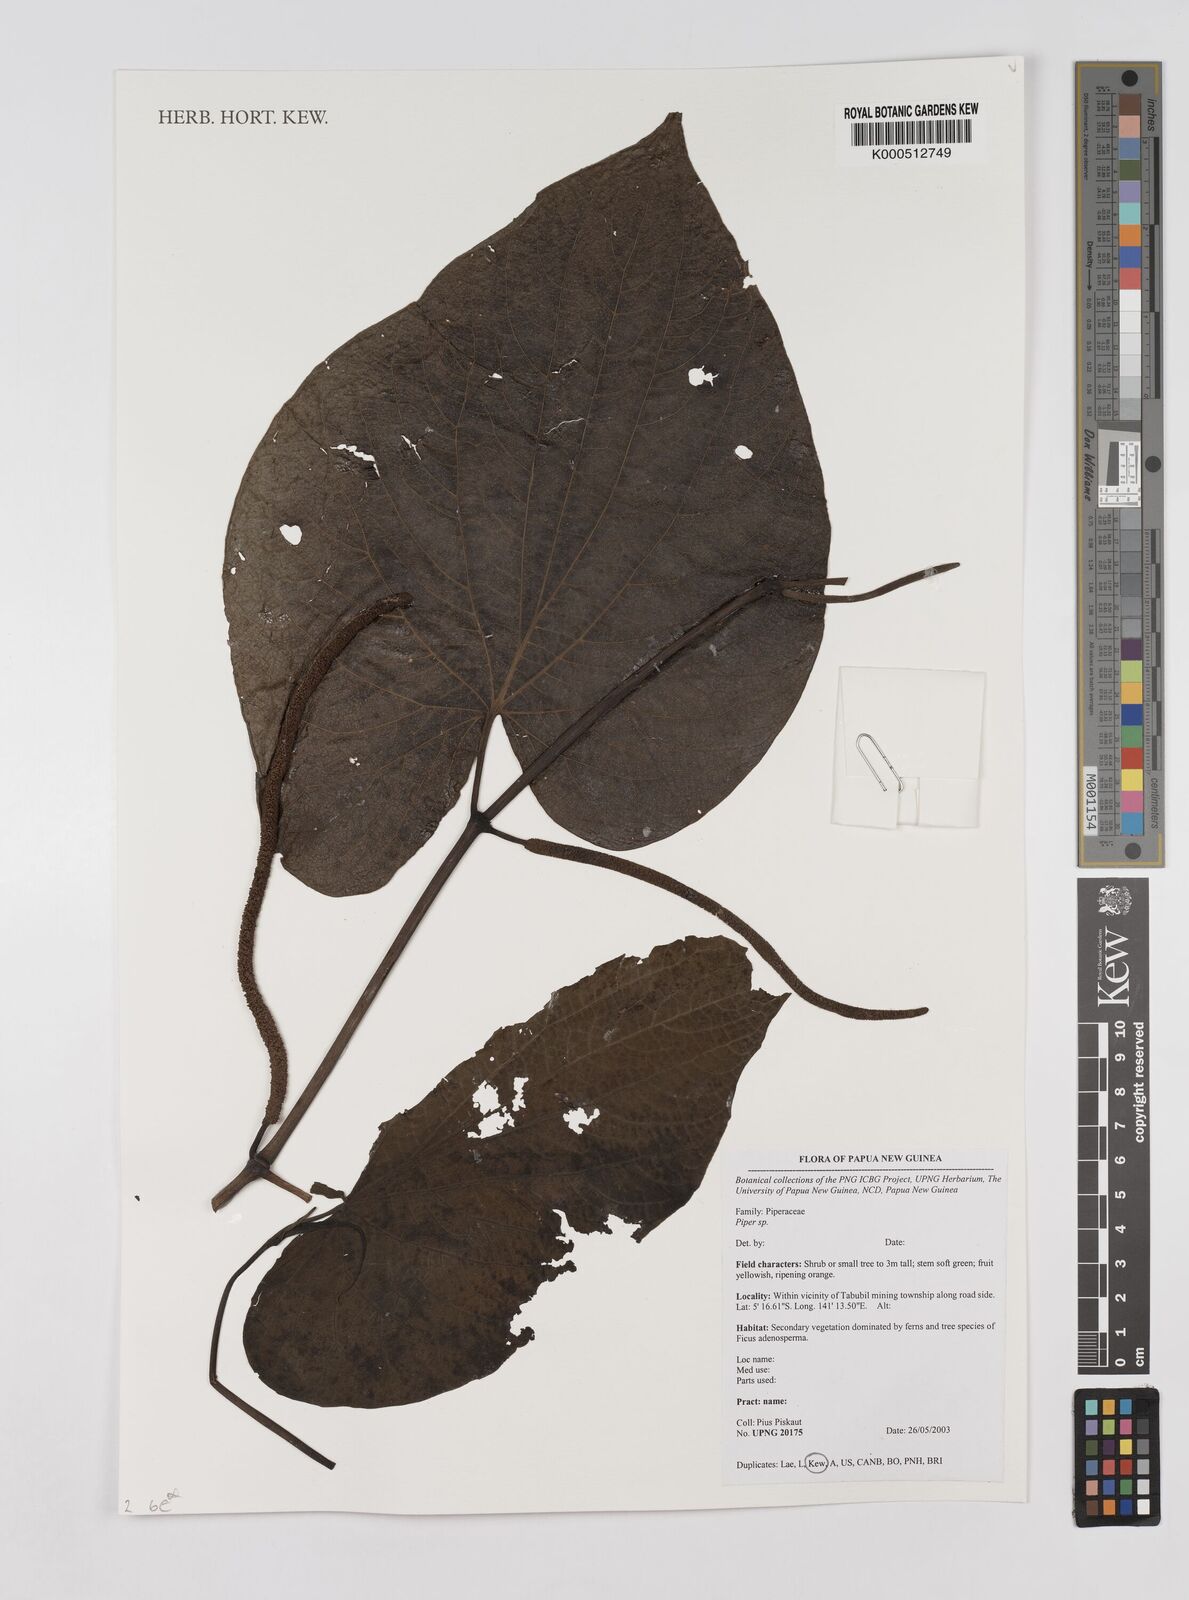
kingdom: Plantae
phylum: Tracheophyta
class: Magnoliopsida
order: Piperales
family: Piperaceae
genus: Piper
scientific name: Piper
